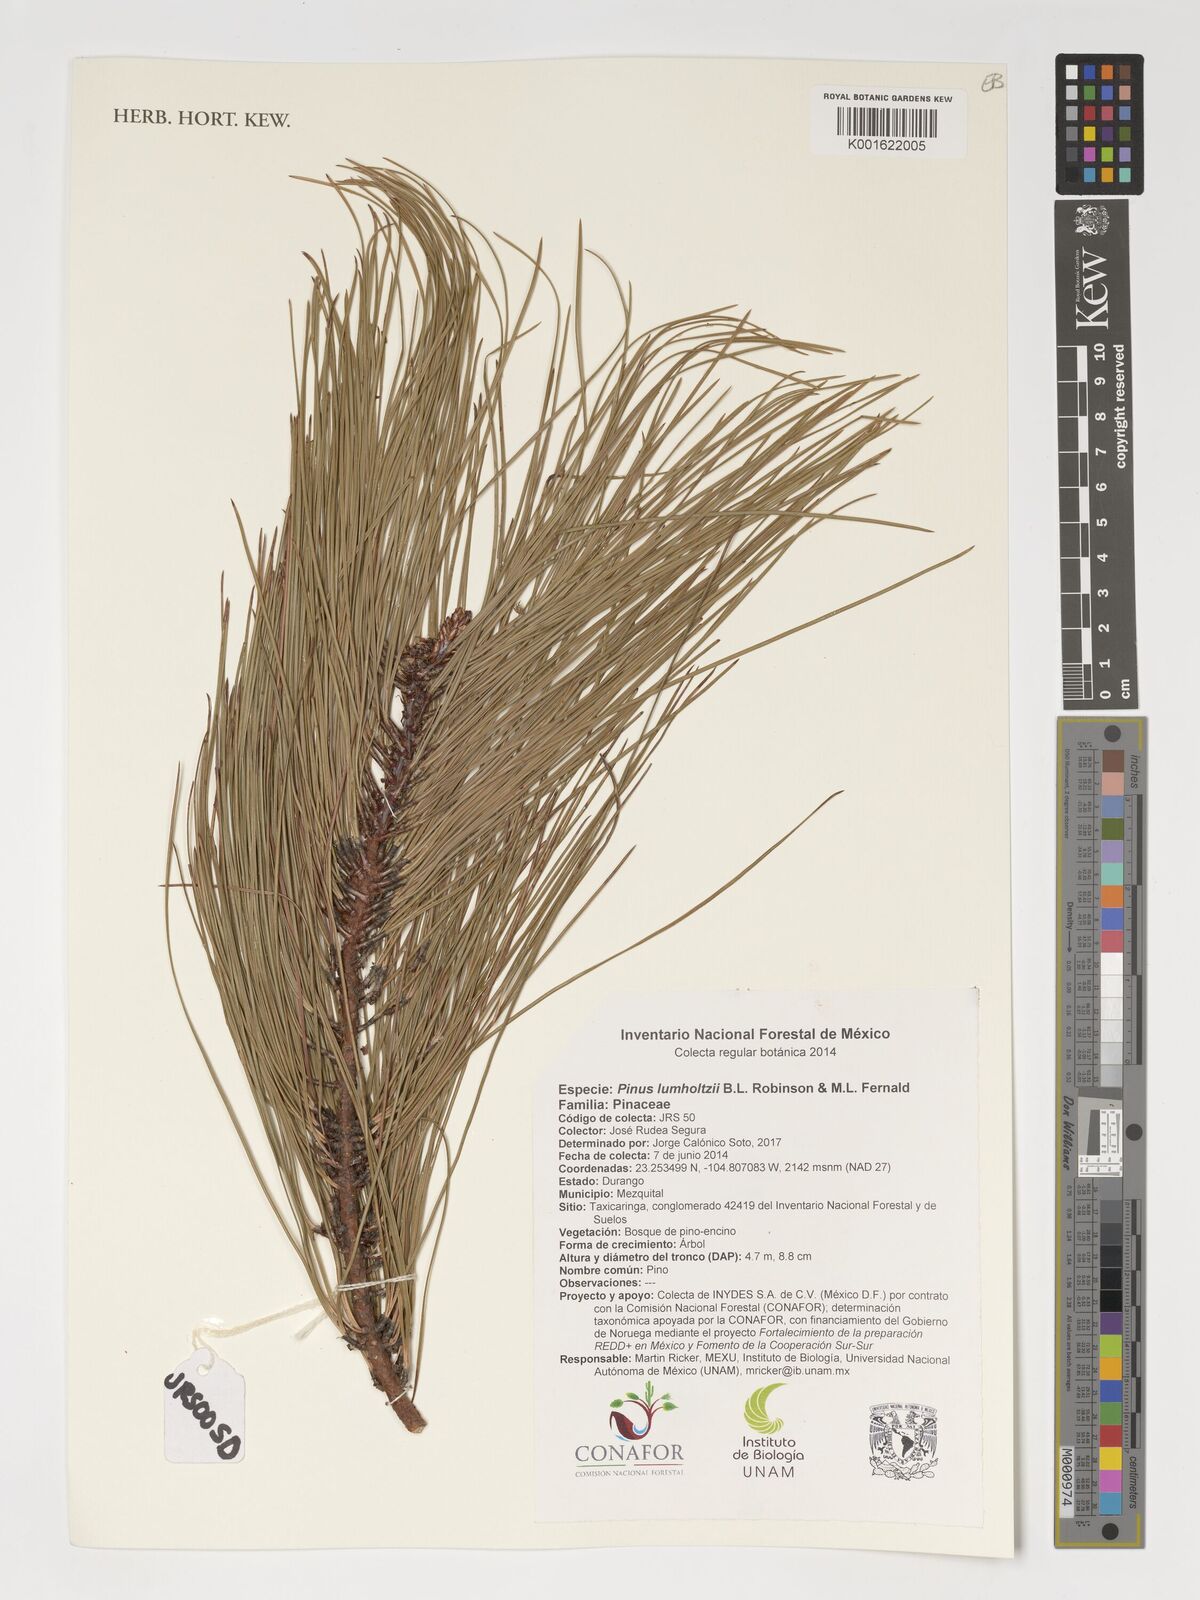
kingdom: Plantae
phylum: Tracheophyta
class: Pinopsida
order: Pinales
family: Pinaceae
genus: Pinus
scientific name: Pinus lumholtzii
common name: Lumholtz's pine
